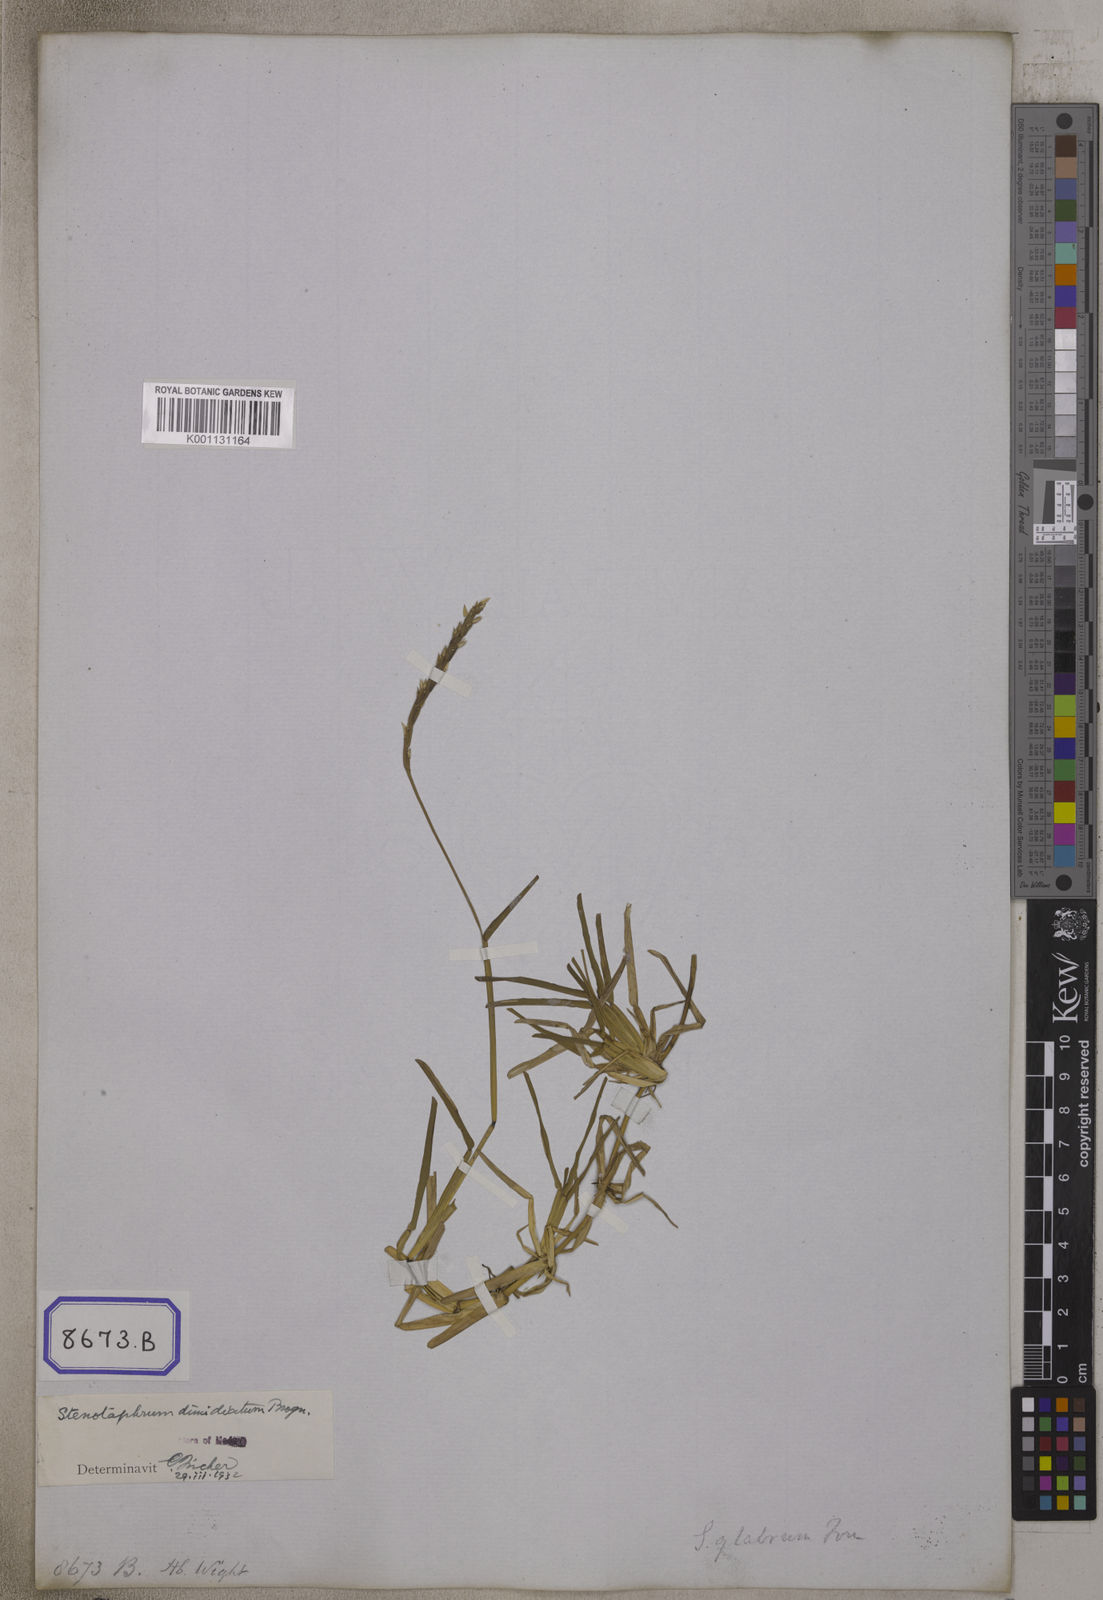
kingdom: Plantae
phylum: Tracheophyta
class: Liliopsida
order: Poales
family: Poaceae
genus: Stenotaphrum
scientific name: Stenotaphrum
